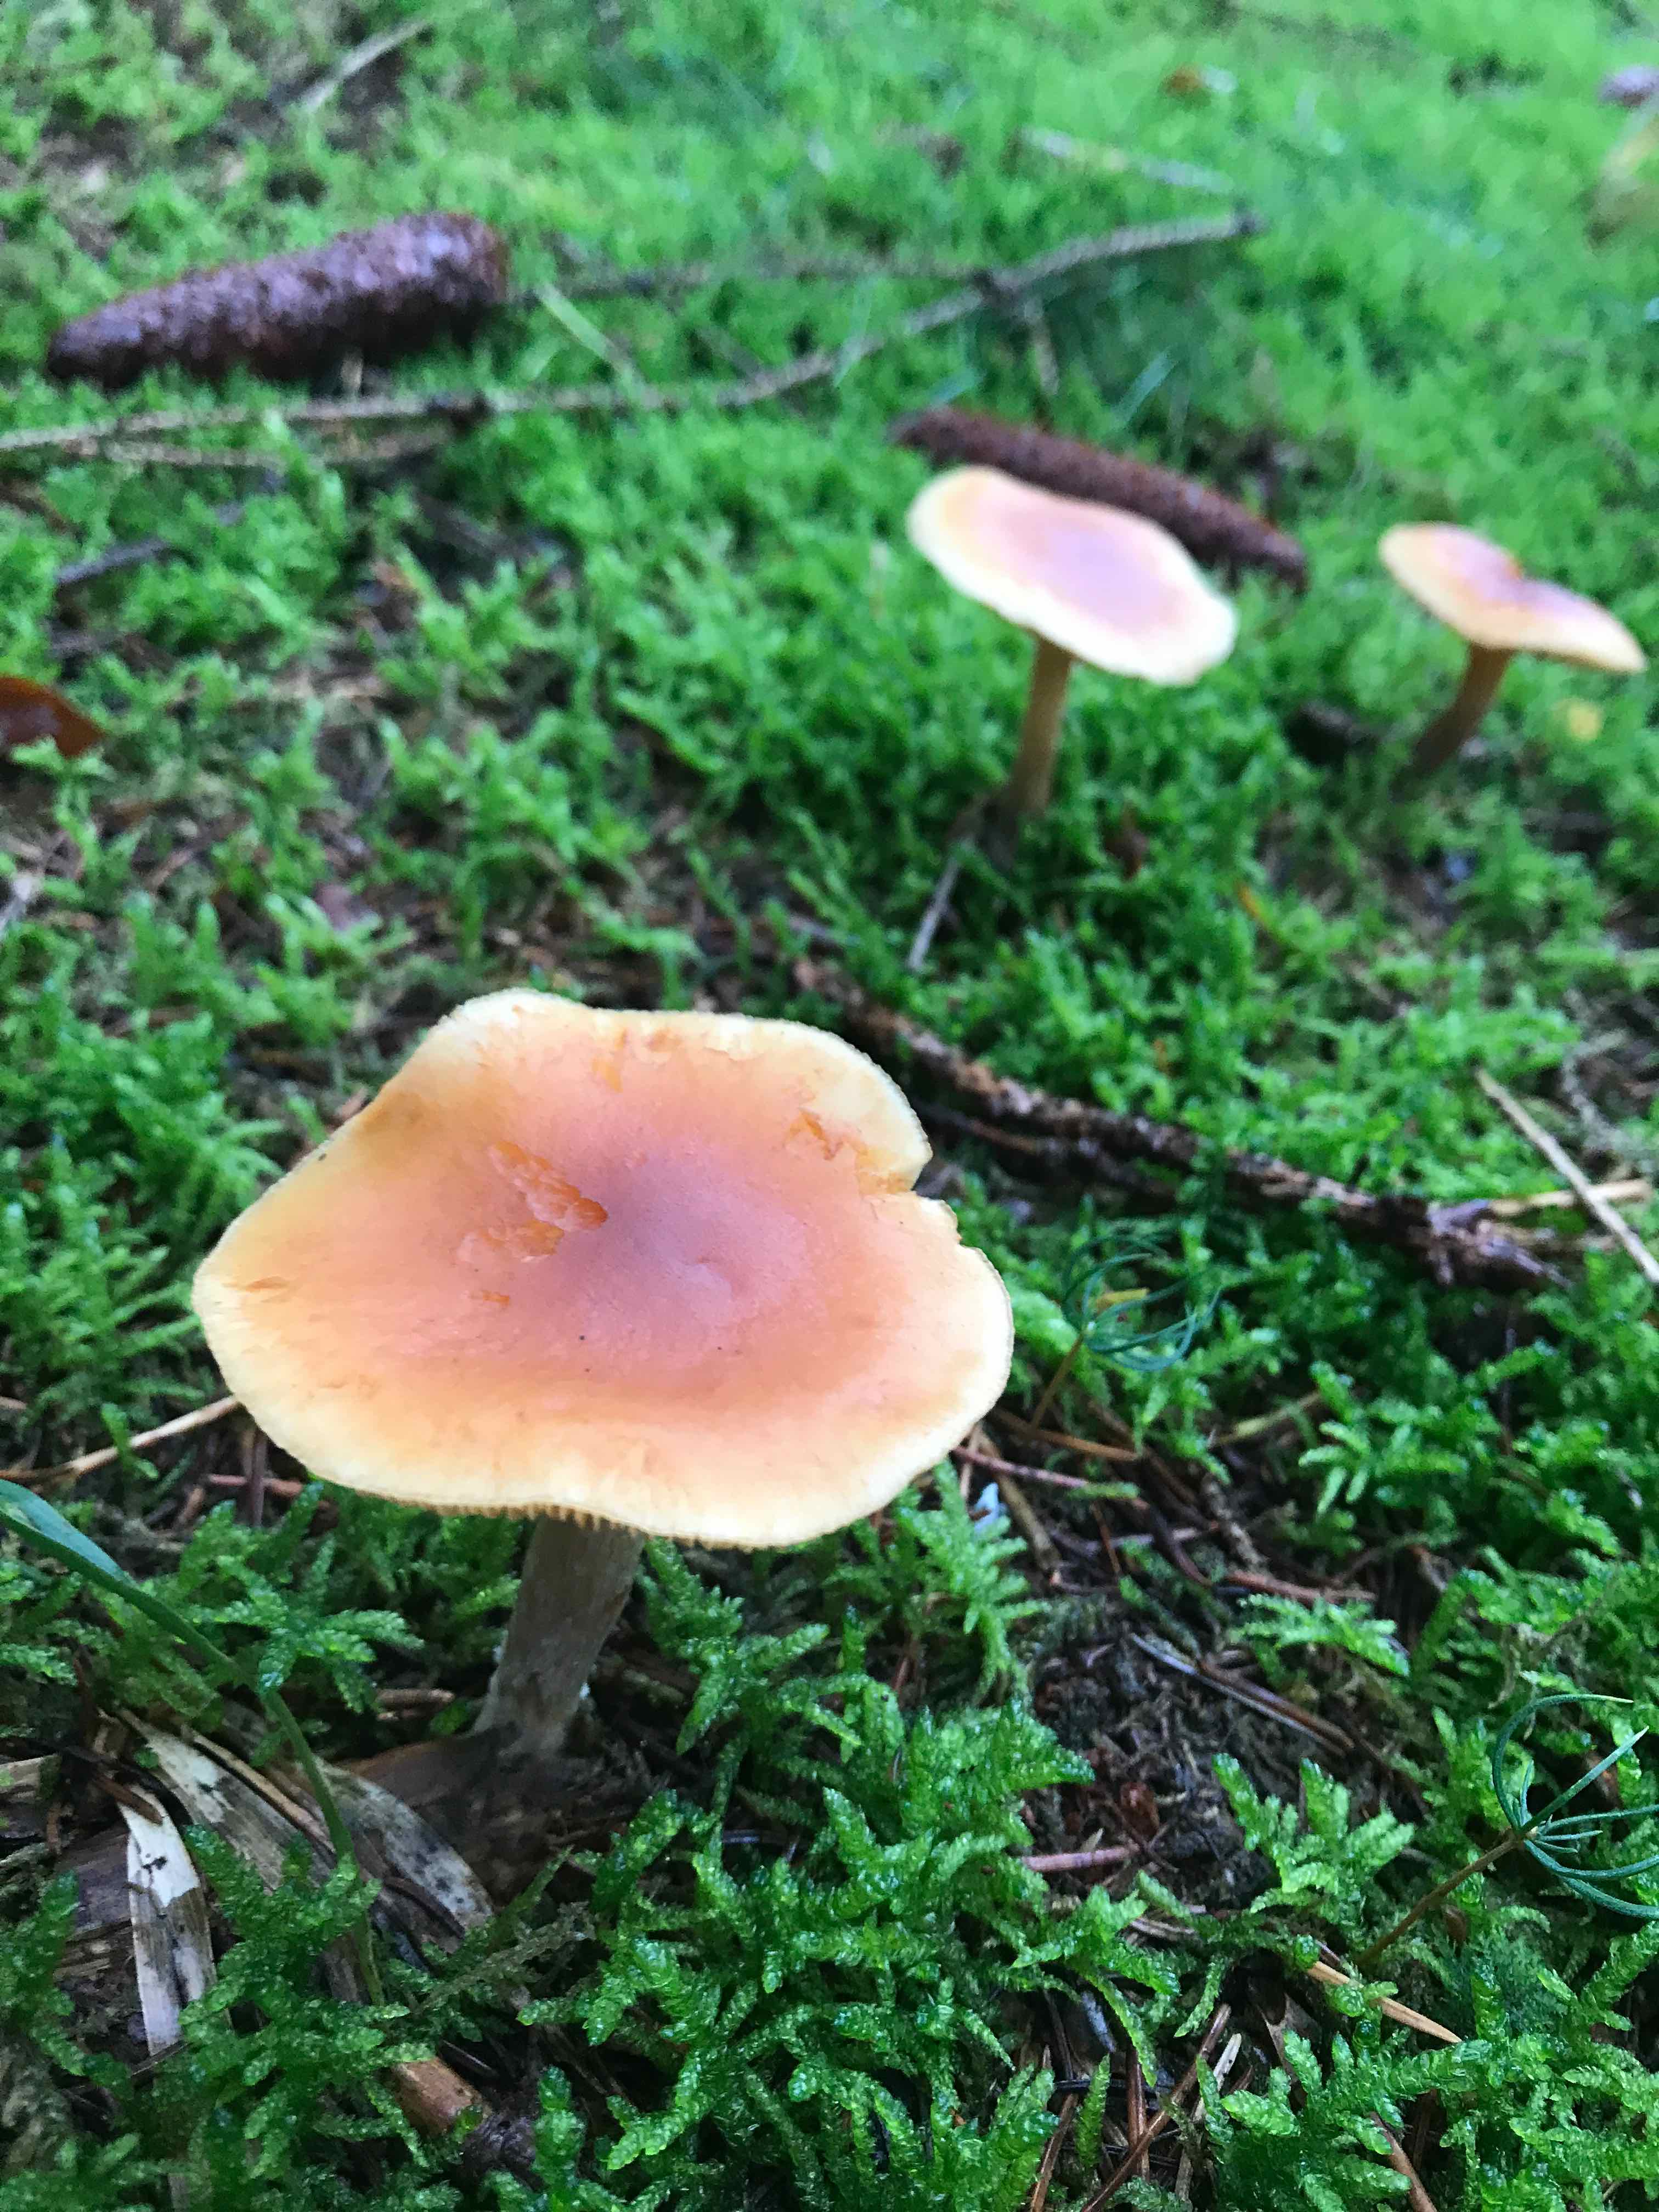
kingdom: Fungi
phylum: Basidiomycota
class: Agaricomycetes
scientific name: Agaricomycetes
